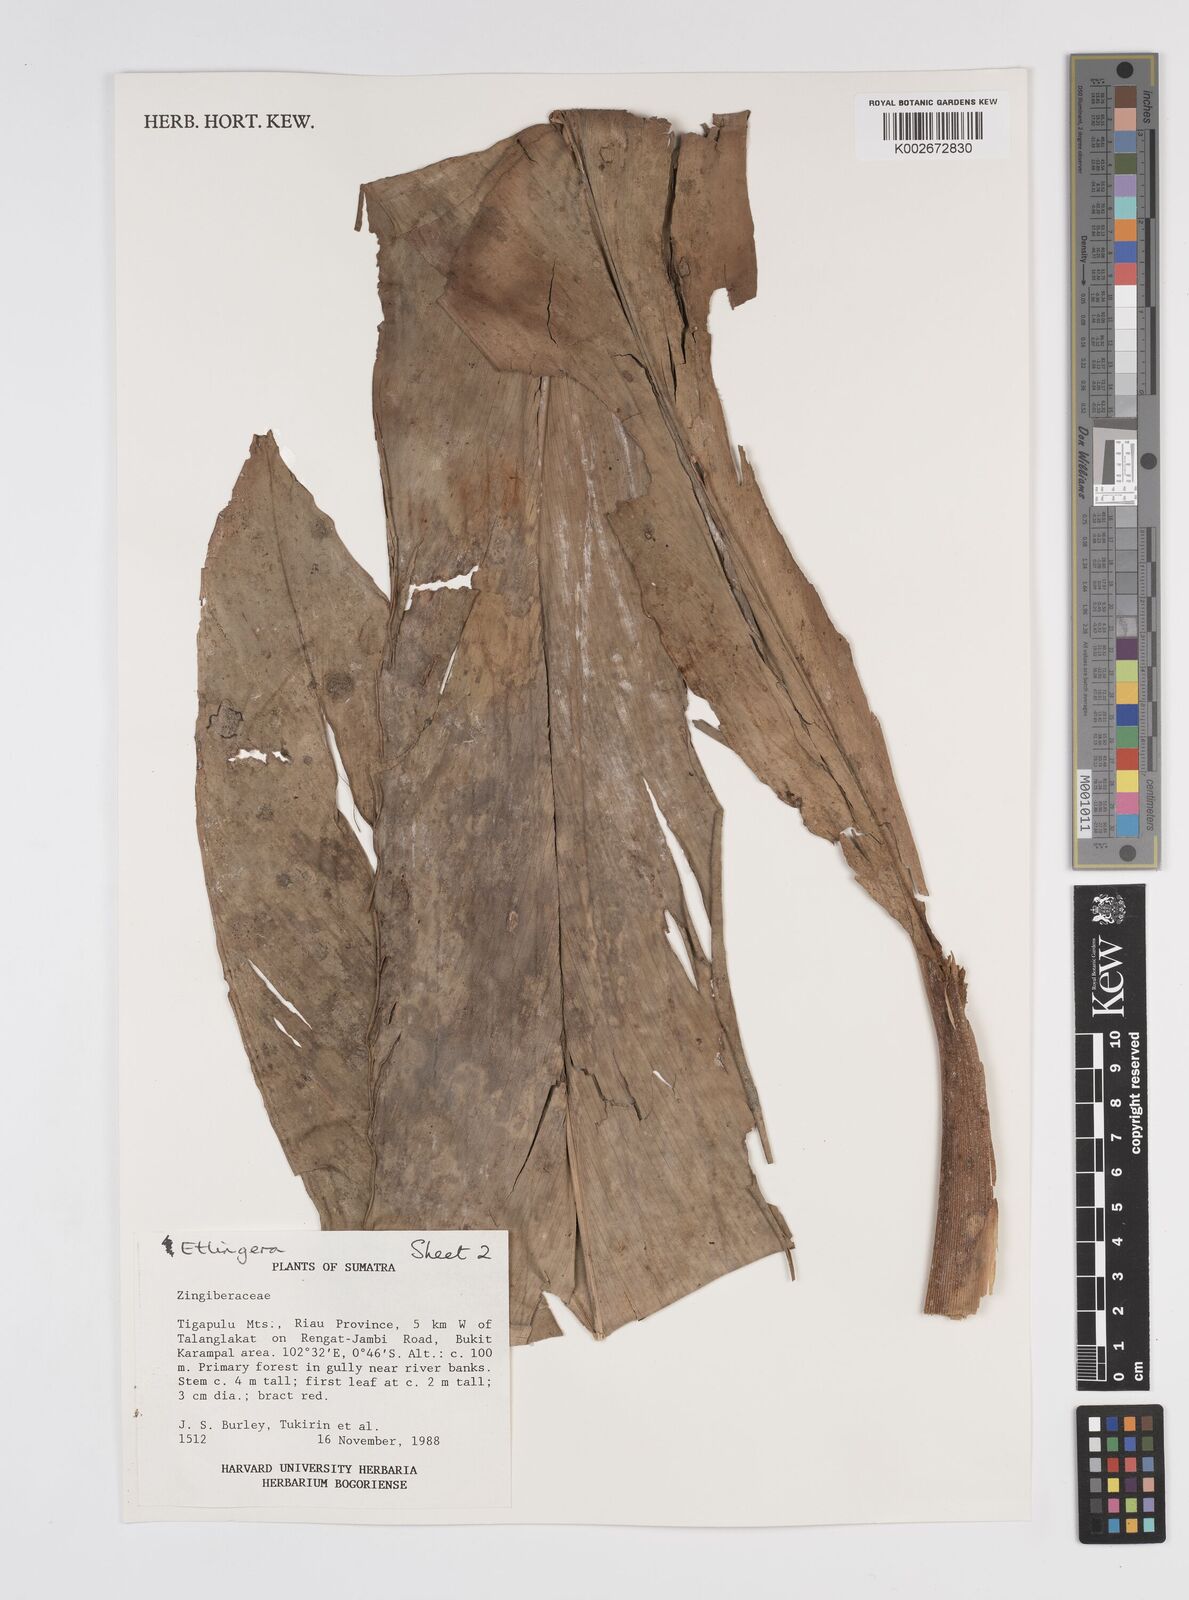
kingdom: Plantae
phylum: Tracheophyta
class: Liliopsida
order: Zingiberales
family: Zingiberaceae
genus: Etlingera
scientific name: Etlingera
